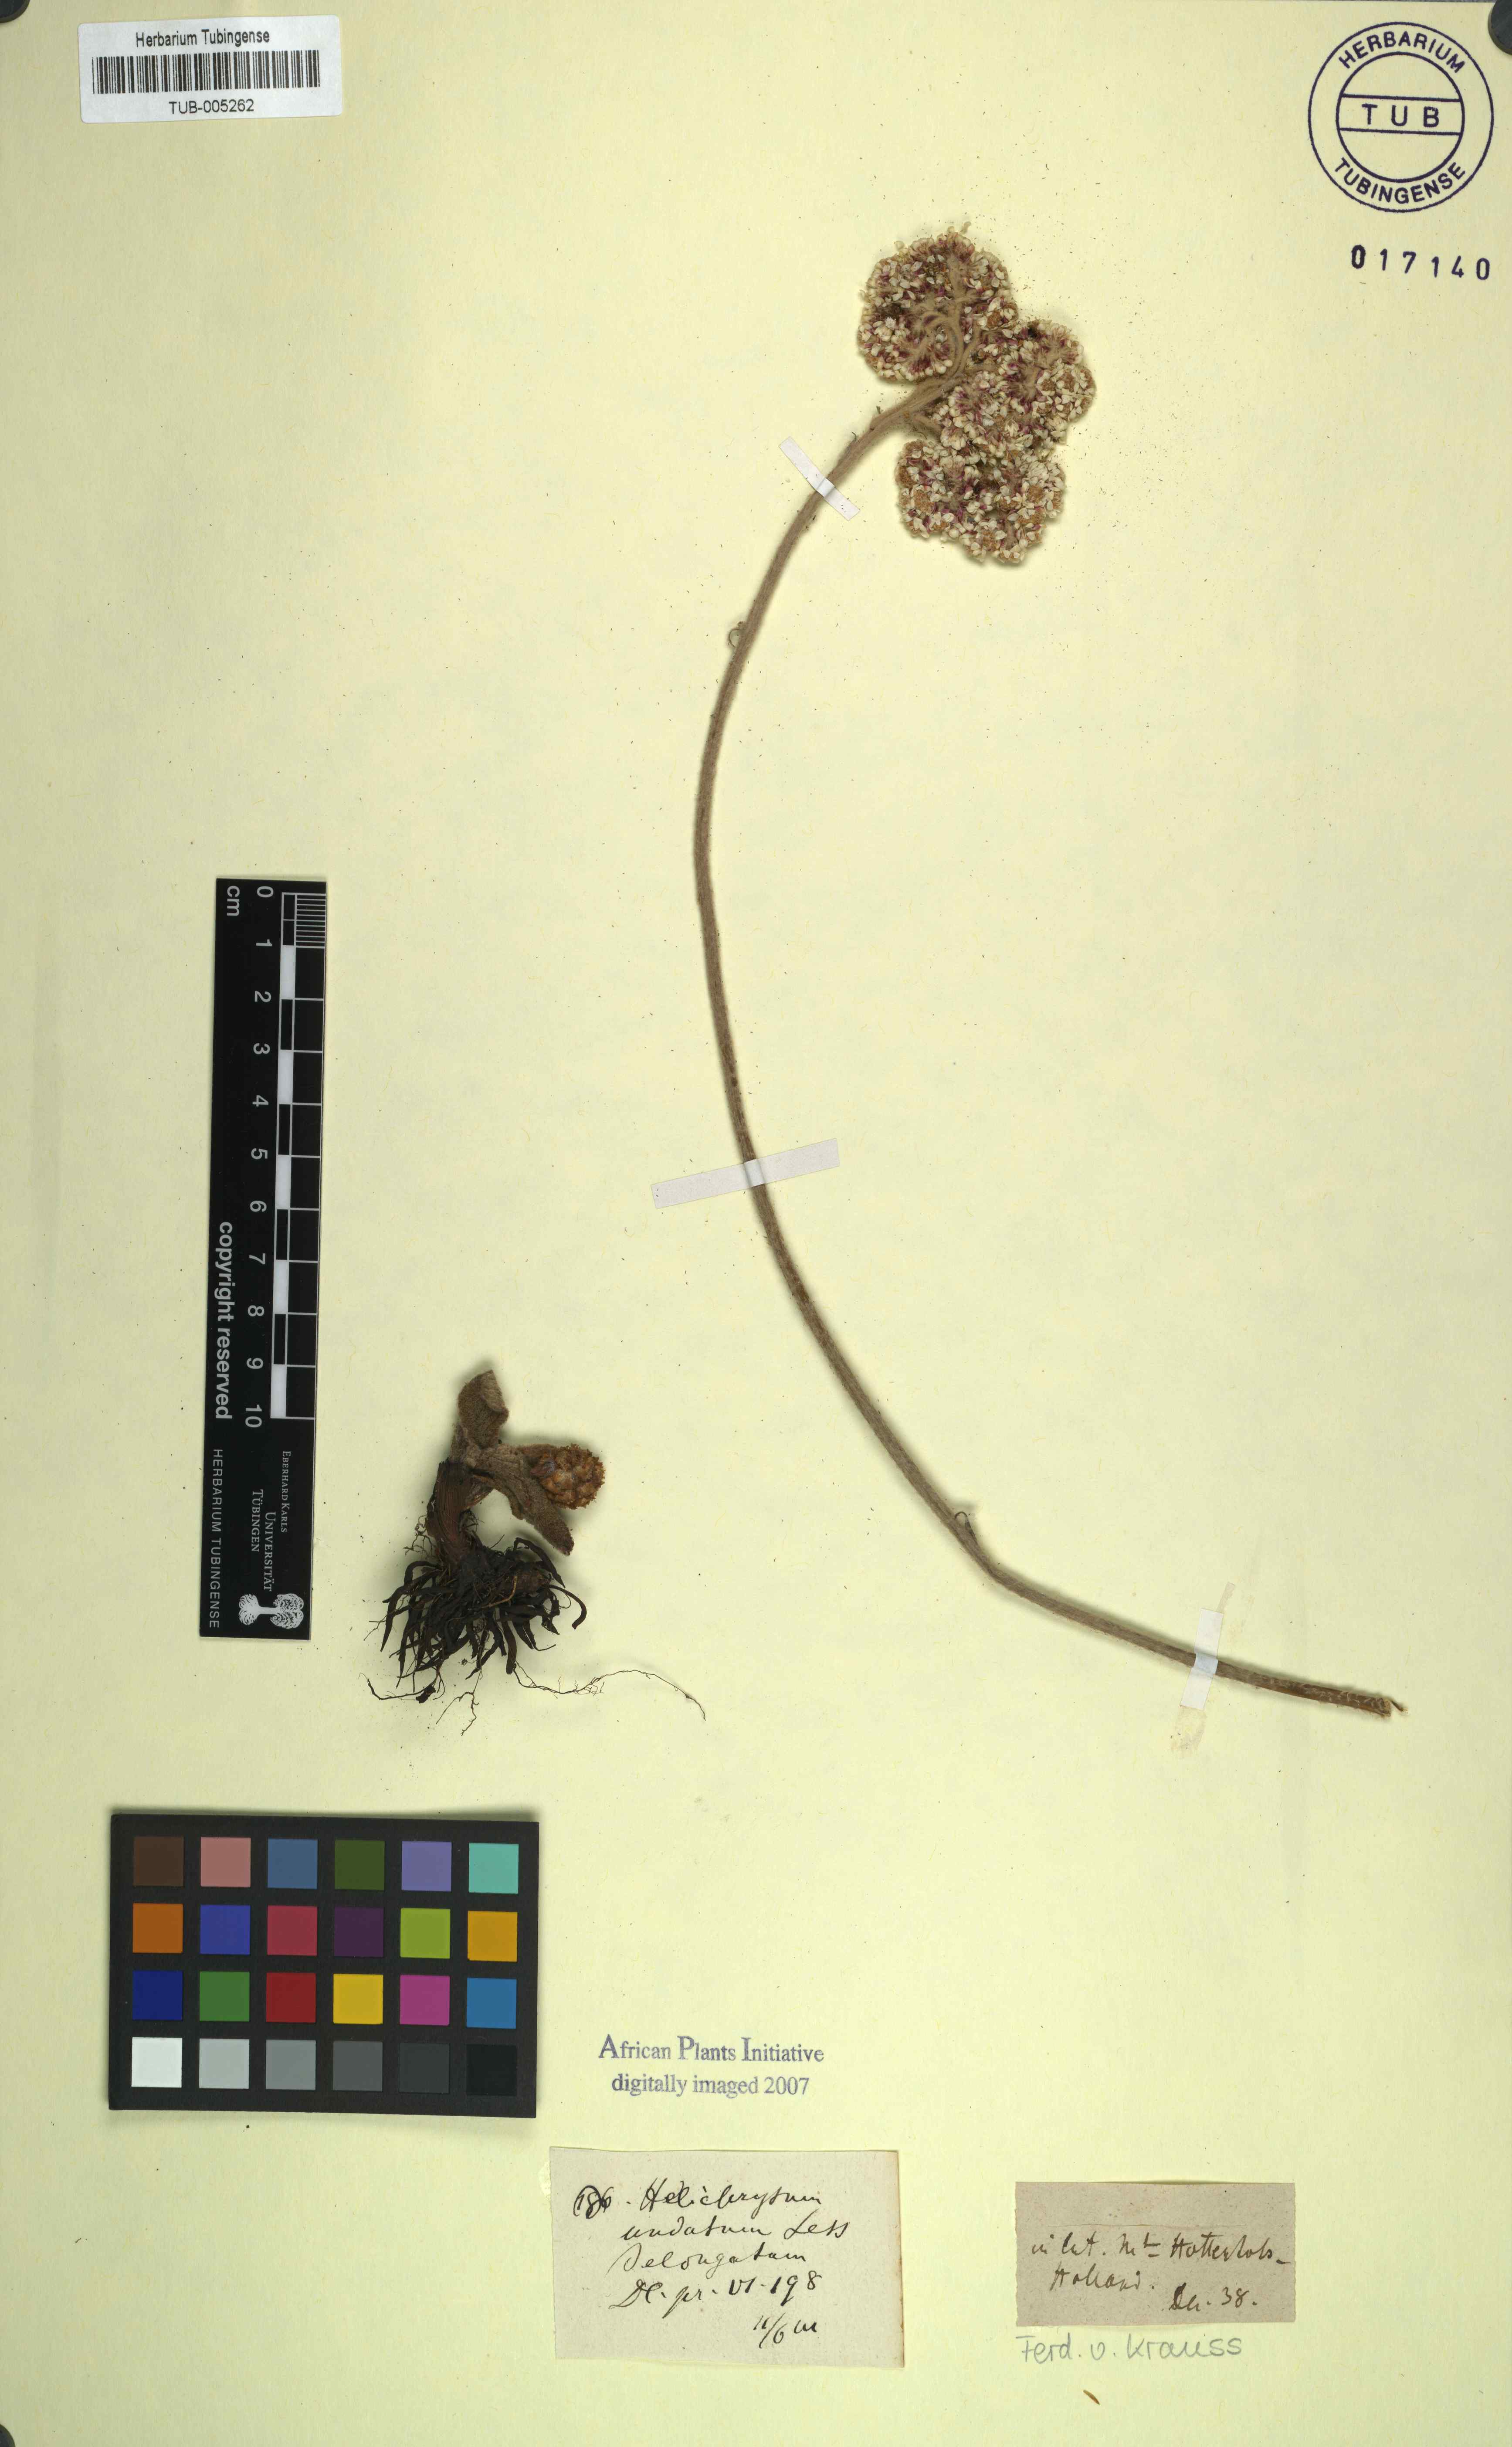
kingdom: Plantae
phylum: Tracheophyta
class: Magnoliopsida
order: Asterales
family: Asteraceae
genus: Helichrysum
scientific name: Helichrysum nudifolium
